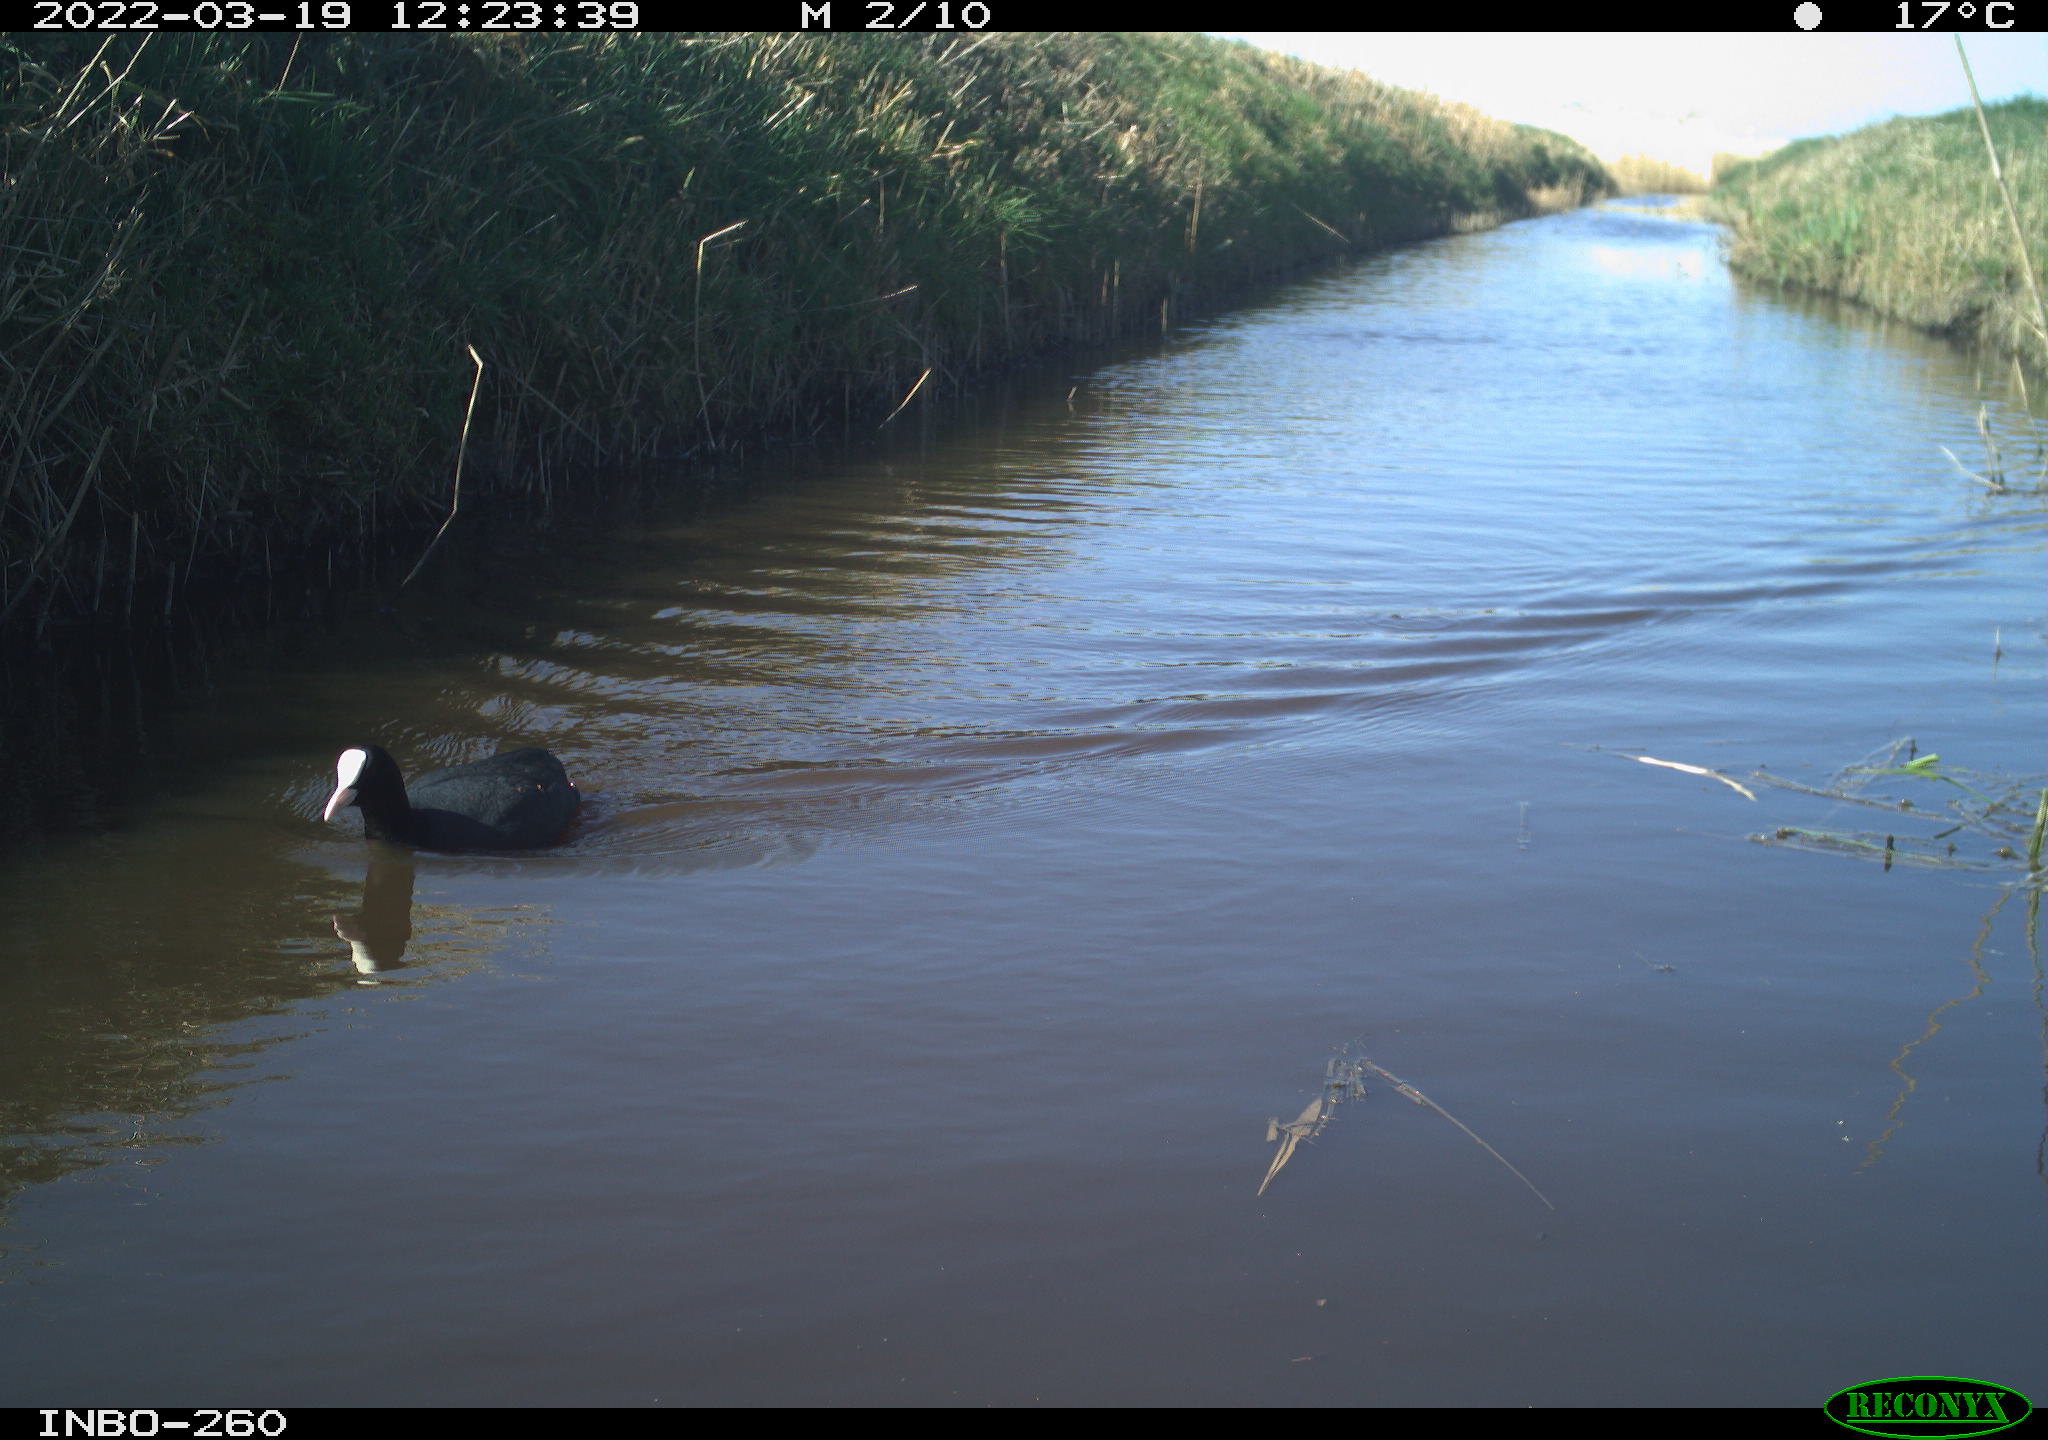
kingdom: Animalia
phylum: Chordata
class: Aves
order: Gruiformes
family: Rallidae
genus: Fulica
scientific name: Fulica atra
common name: Eurasian coot
